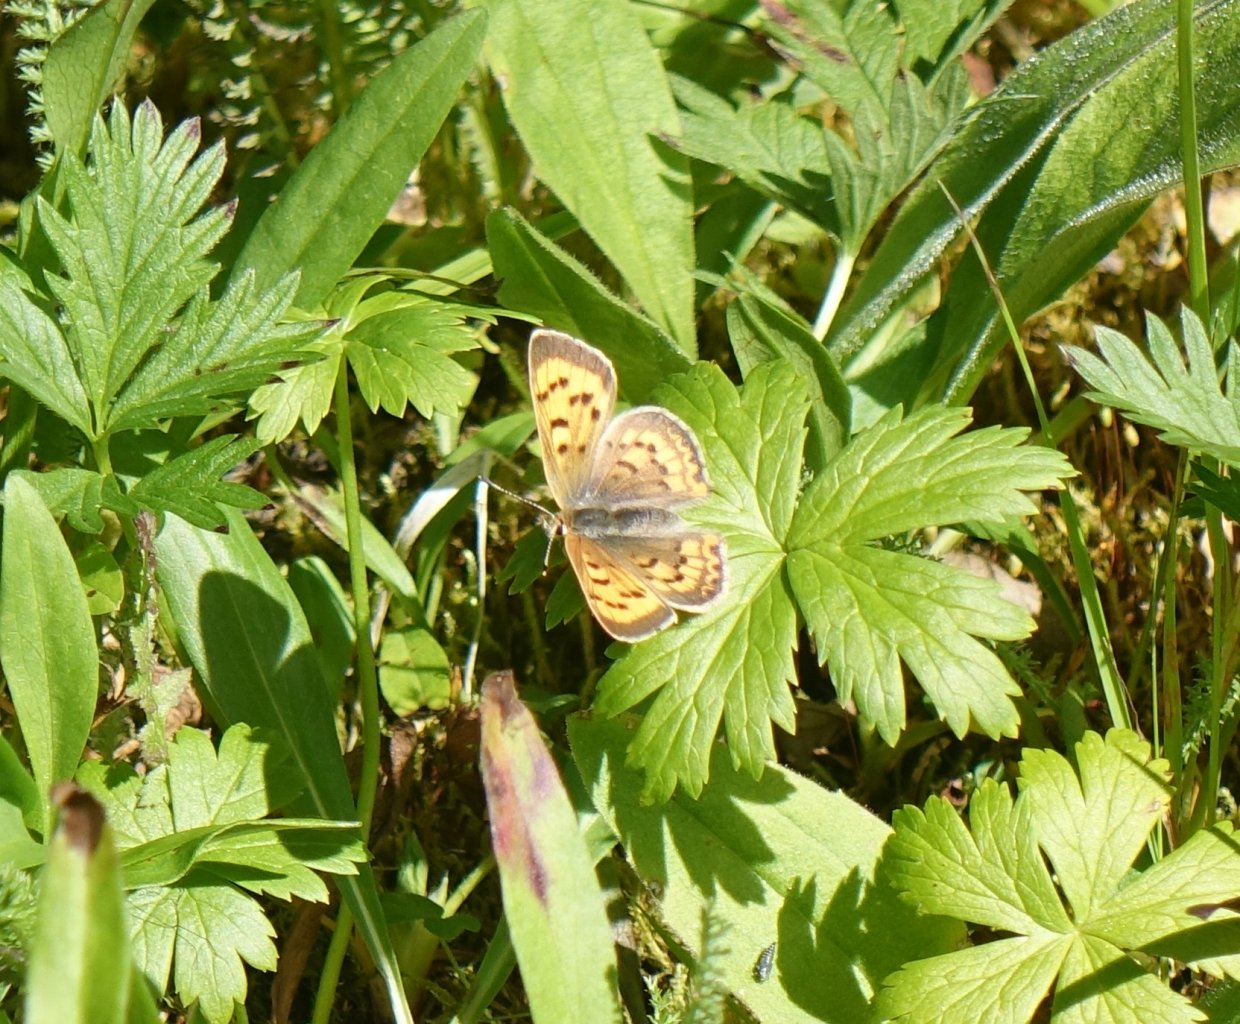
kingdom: Animalia
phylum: Arthropoda
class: Insecta
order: Lepidoptera
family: Sesiidae
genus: Sesia
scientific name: Sesia Lycaena helloides
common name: Purplish Copper
